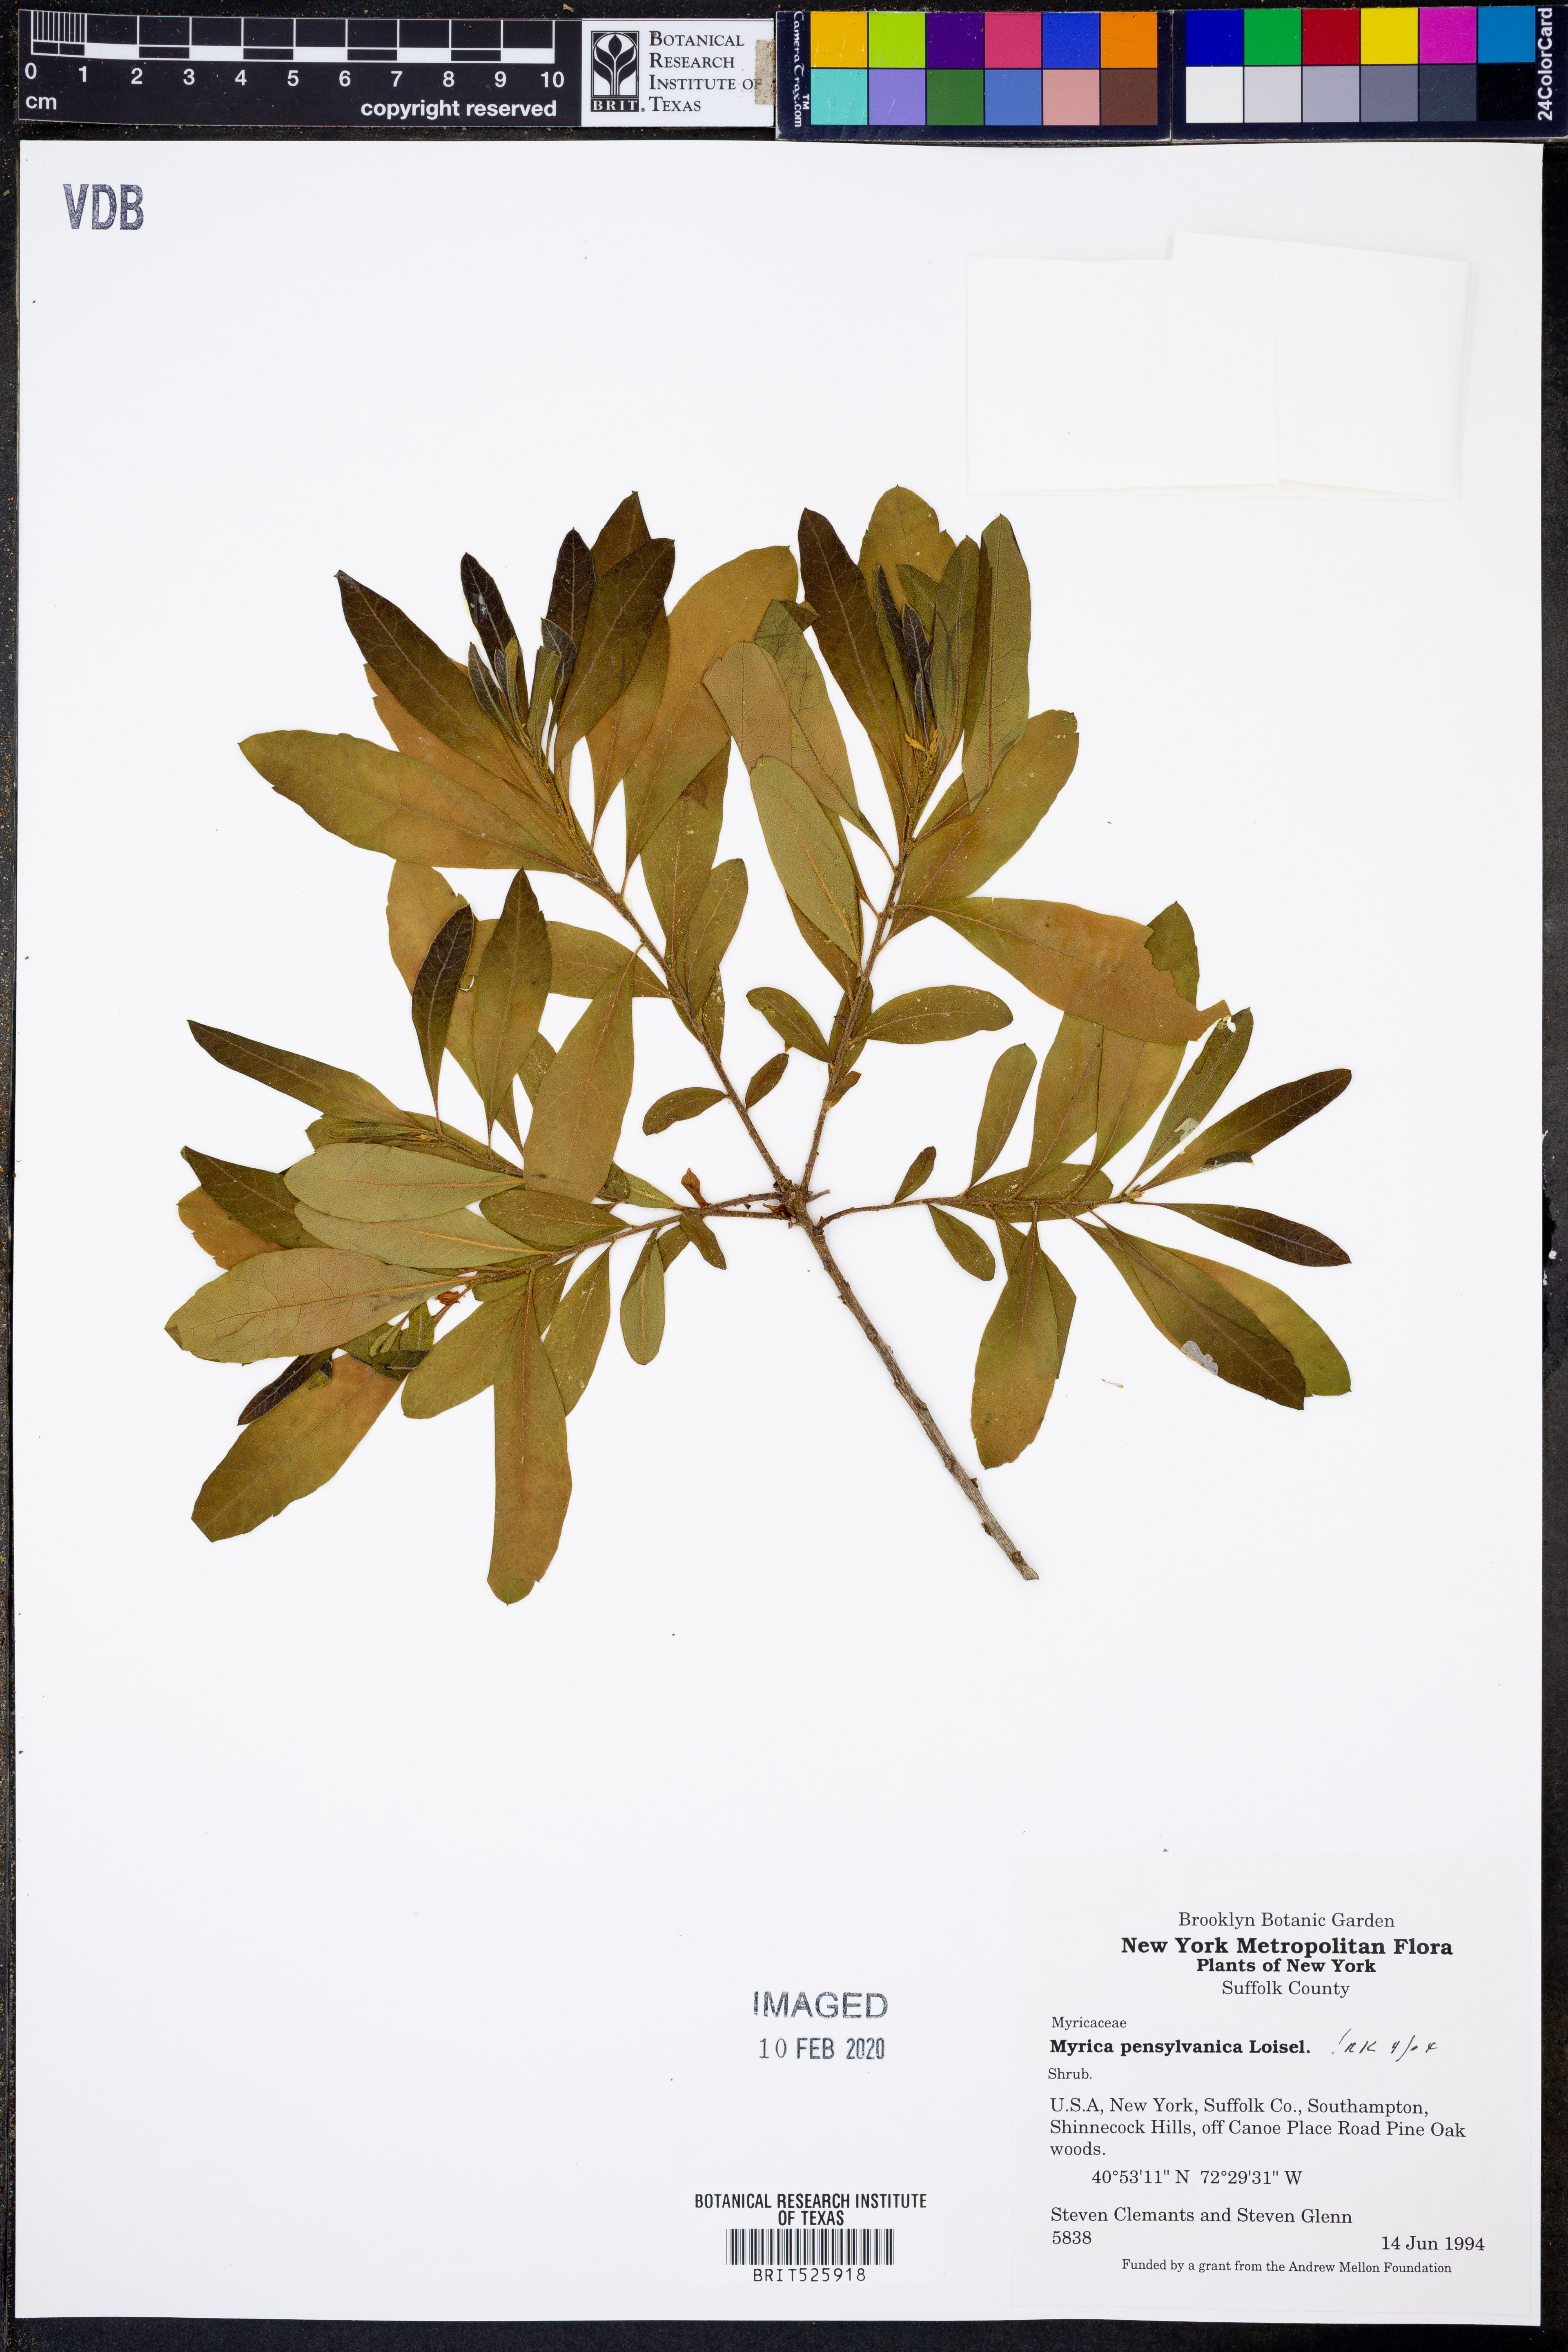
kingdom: Plantae
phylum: Tracheophyta
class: Magnoliopsida
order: Fagales
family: Myricaceae
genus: Morella
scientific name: Morella pensylvanica
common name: Northern bayberry
